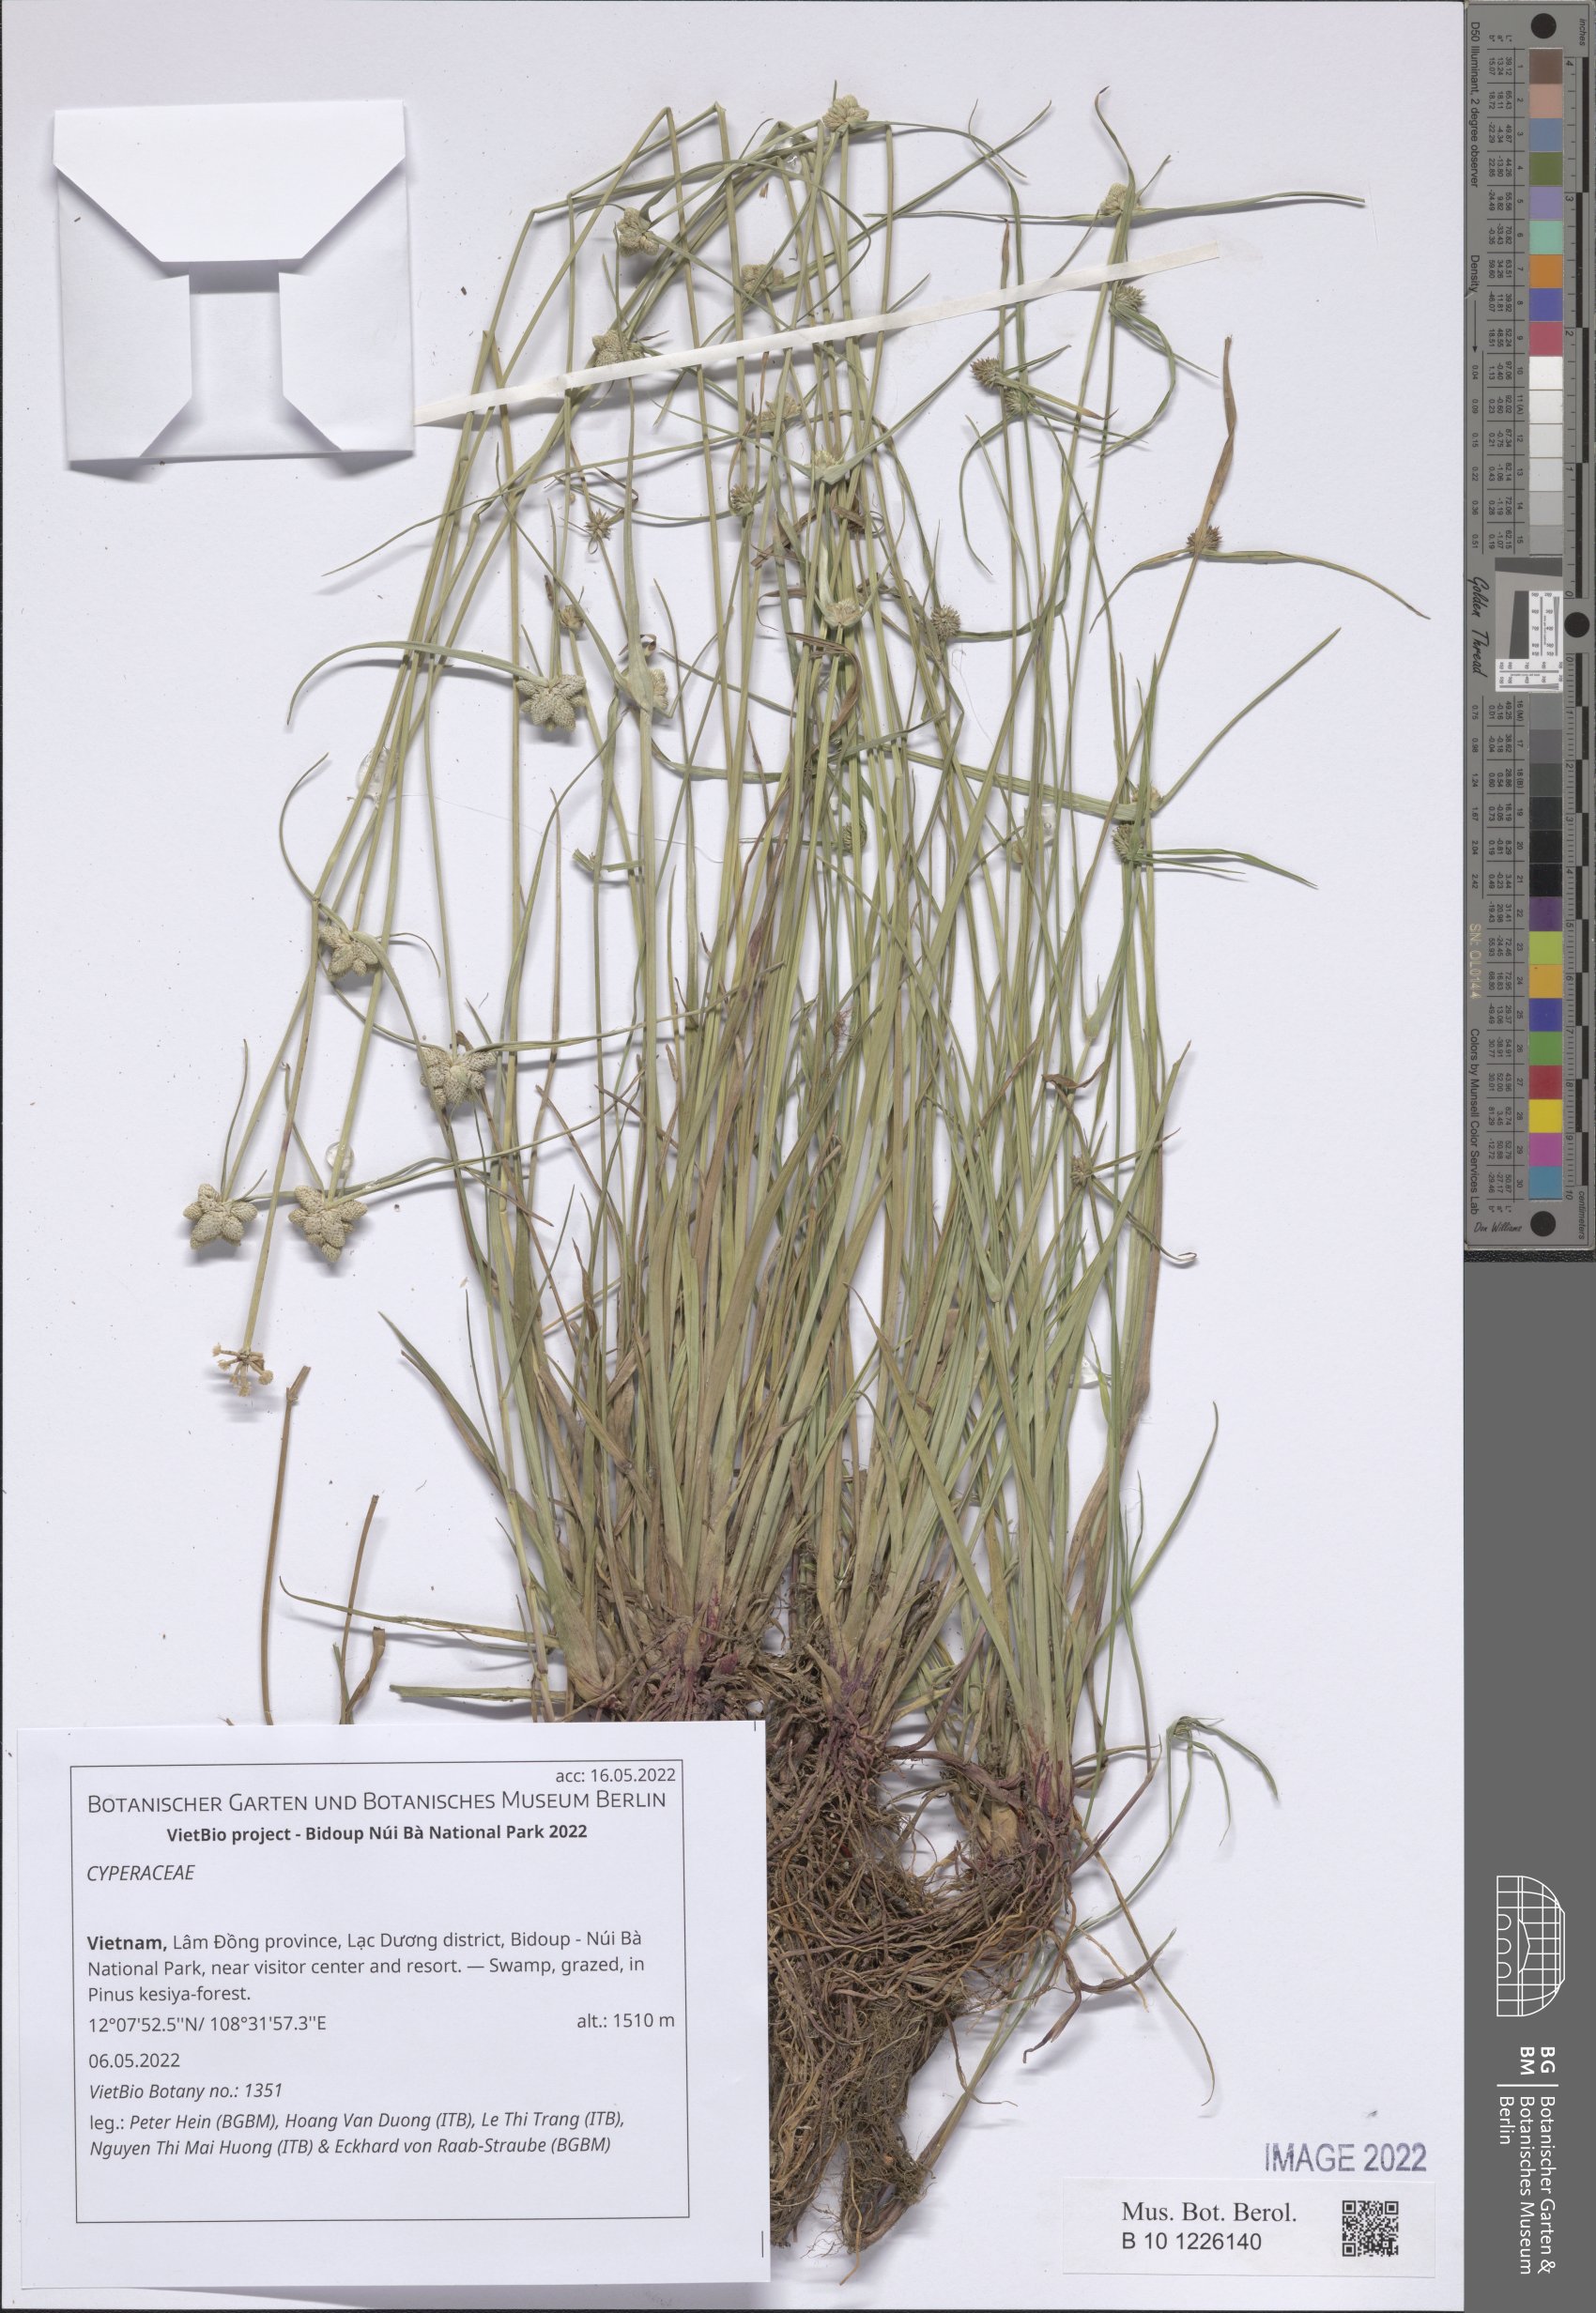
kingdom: Plantae
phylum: Tracheophyta
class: Liliopsida
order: Poales
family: Cyperaceae
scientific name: Cyperaceae
